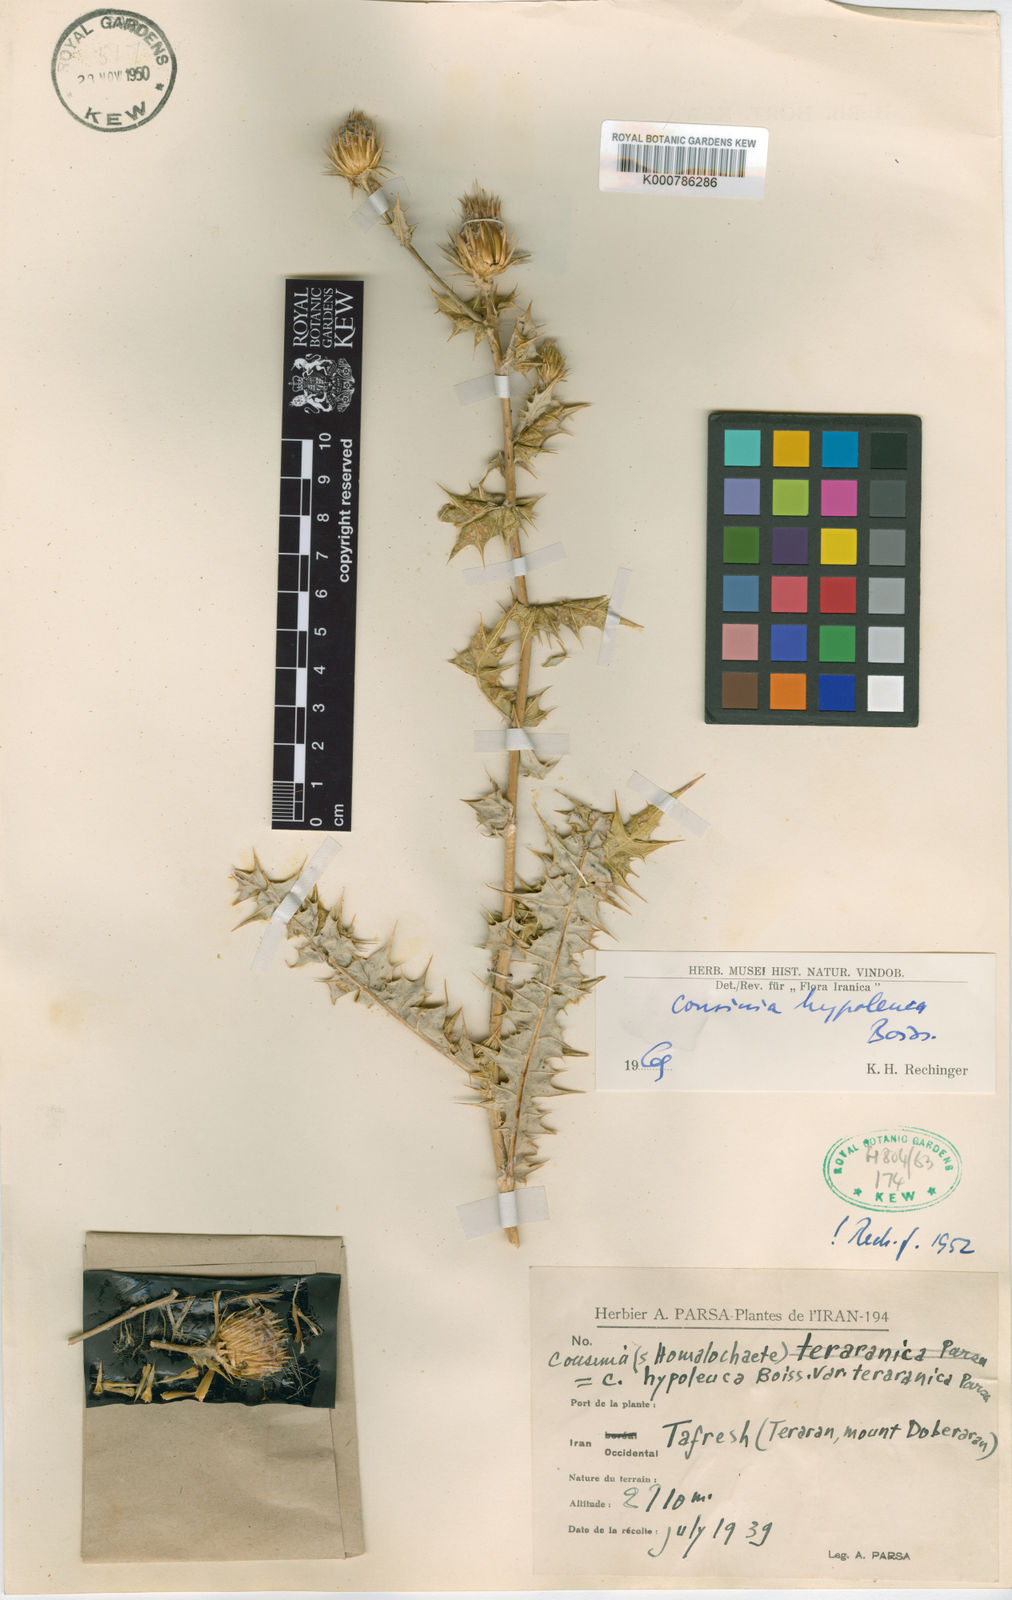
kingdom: Plantae
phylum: Tracheophyta
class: Magnoliopsida
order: Asterales
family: Asteraceae
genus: Cousinia
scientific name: Cousinia hypoleuca
